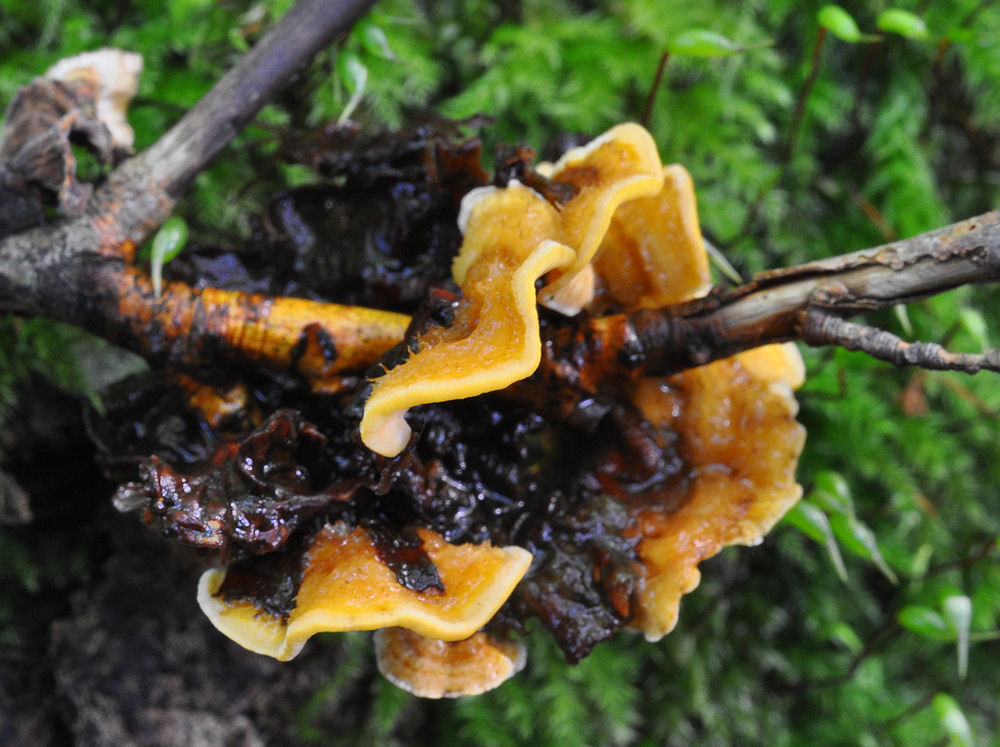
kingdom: Fungi
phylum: Basidiomycota
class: Agaricomycetes
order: Russulales
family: Stereaceae
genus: Stereum
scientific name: Stereum hirsutum
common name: håret lædersvamp
